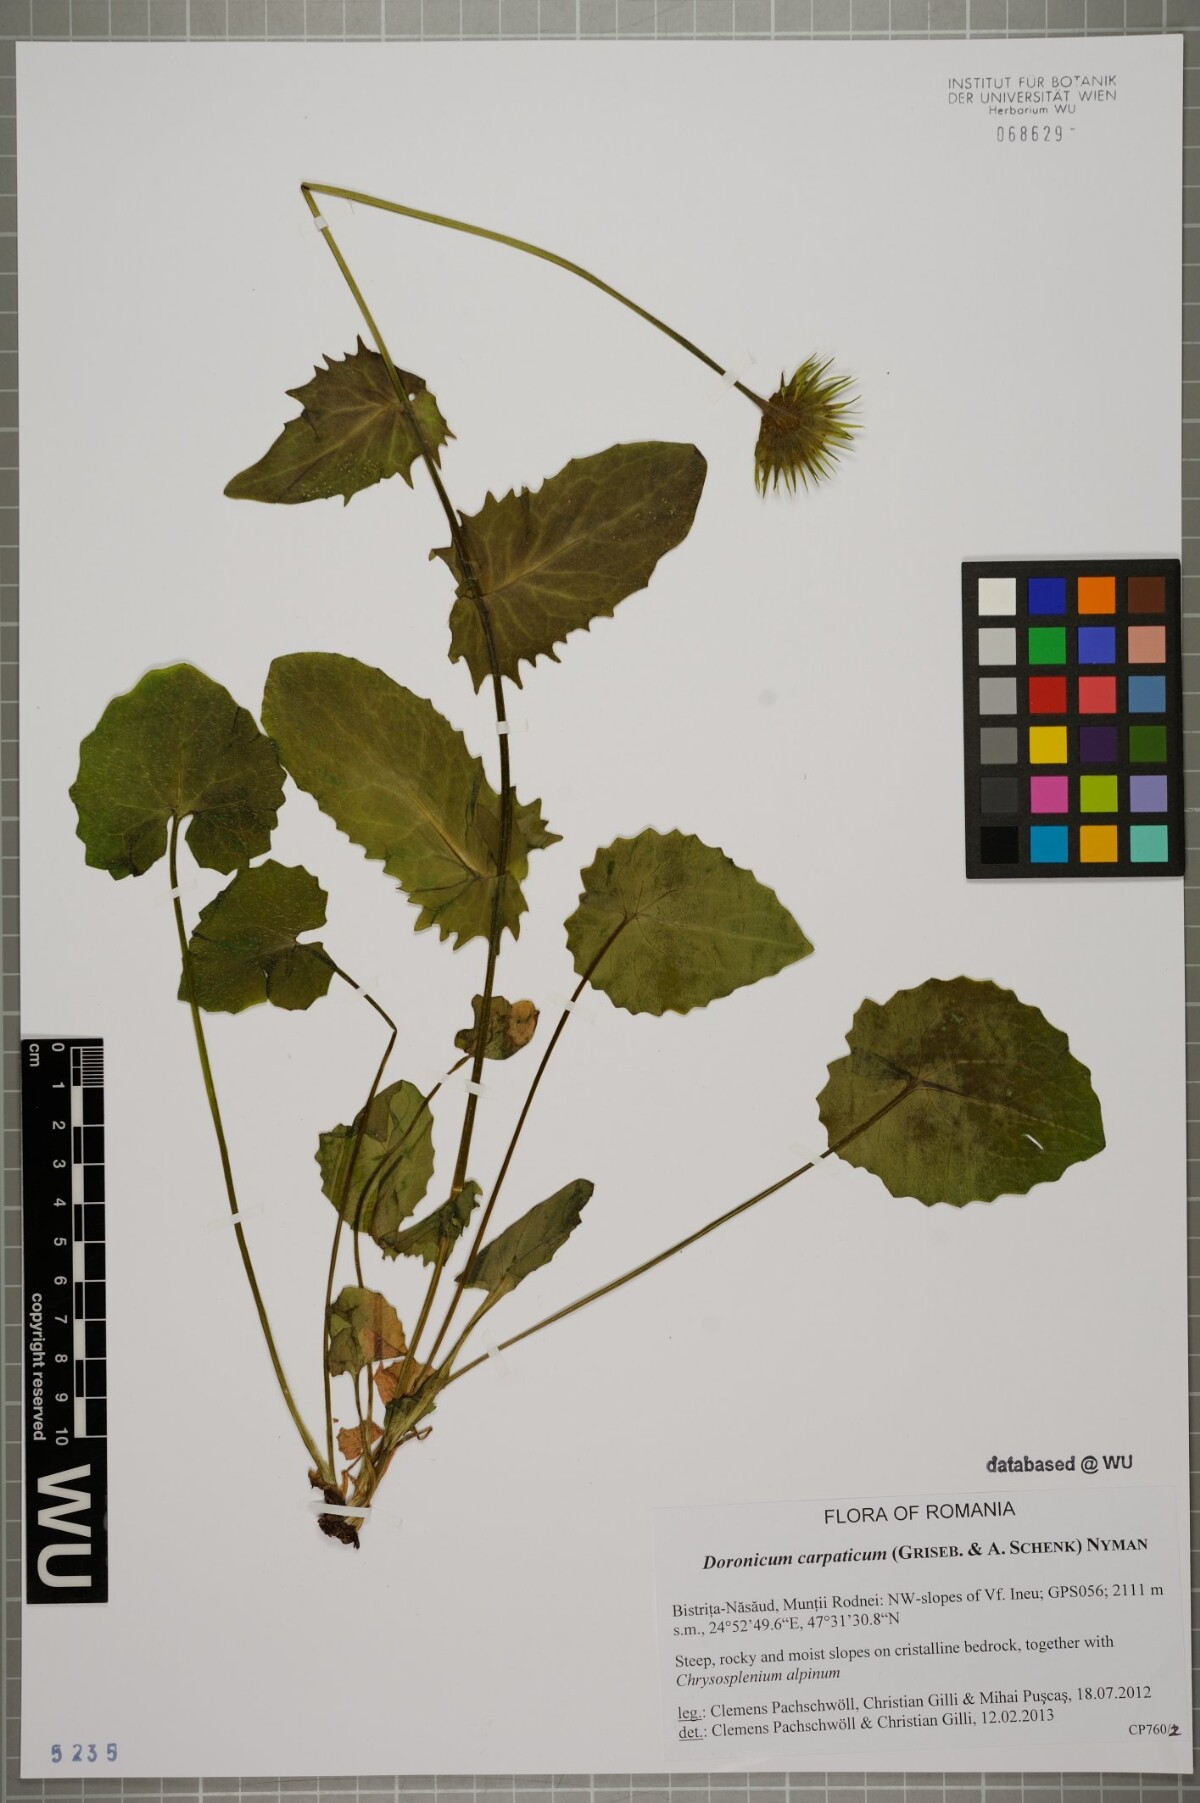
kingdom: Plantae
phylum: Tracheophyta
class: Magnoliopsida
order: Asterales
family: Asteraceae
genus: Doronicum
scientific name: Doronicum carpaticum
